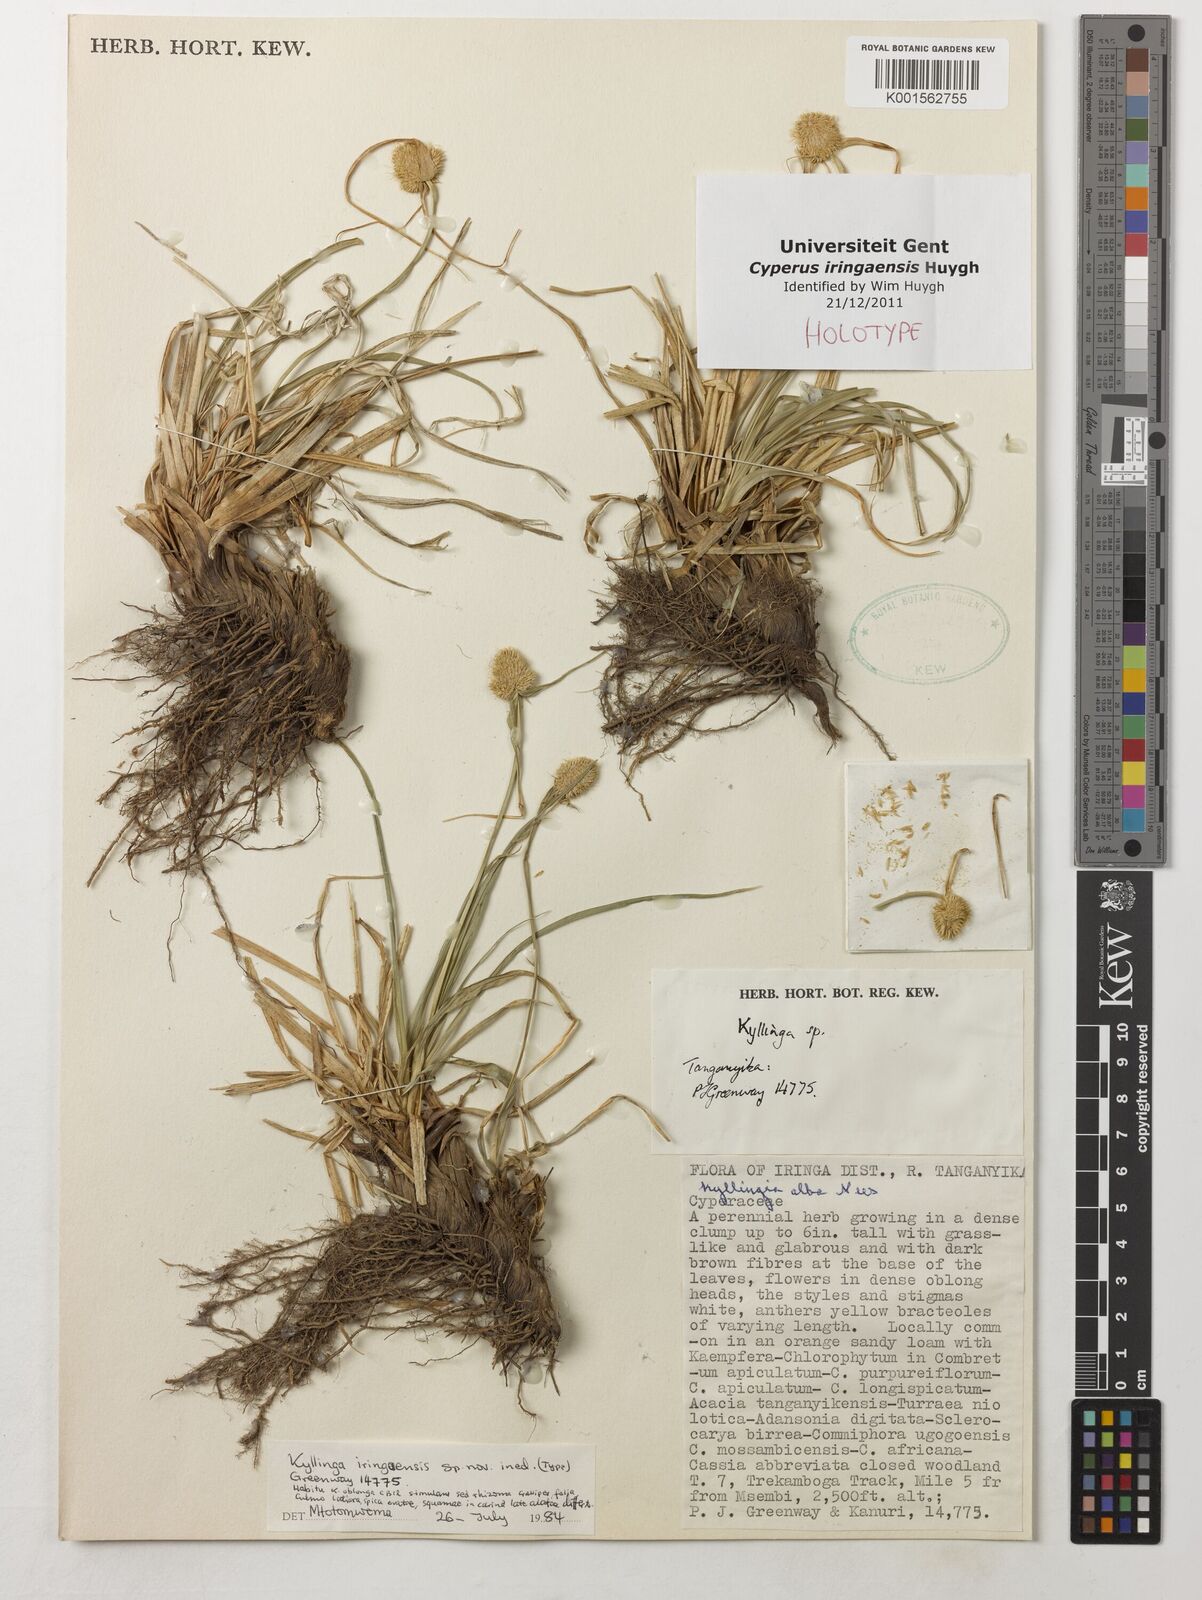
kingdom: Plantae
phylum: Tracheophyta
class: Liliopsida
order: Poales
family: Cyperaceae
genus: Cyperus
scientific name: Cyperus
